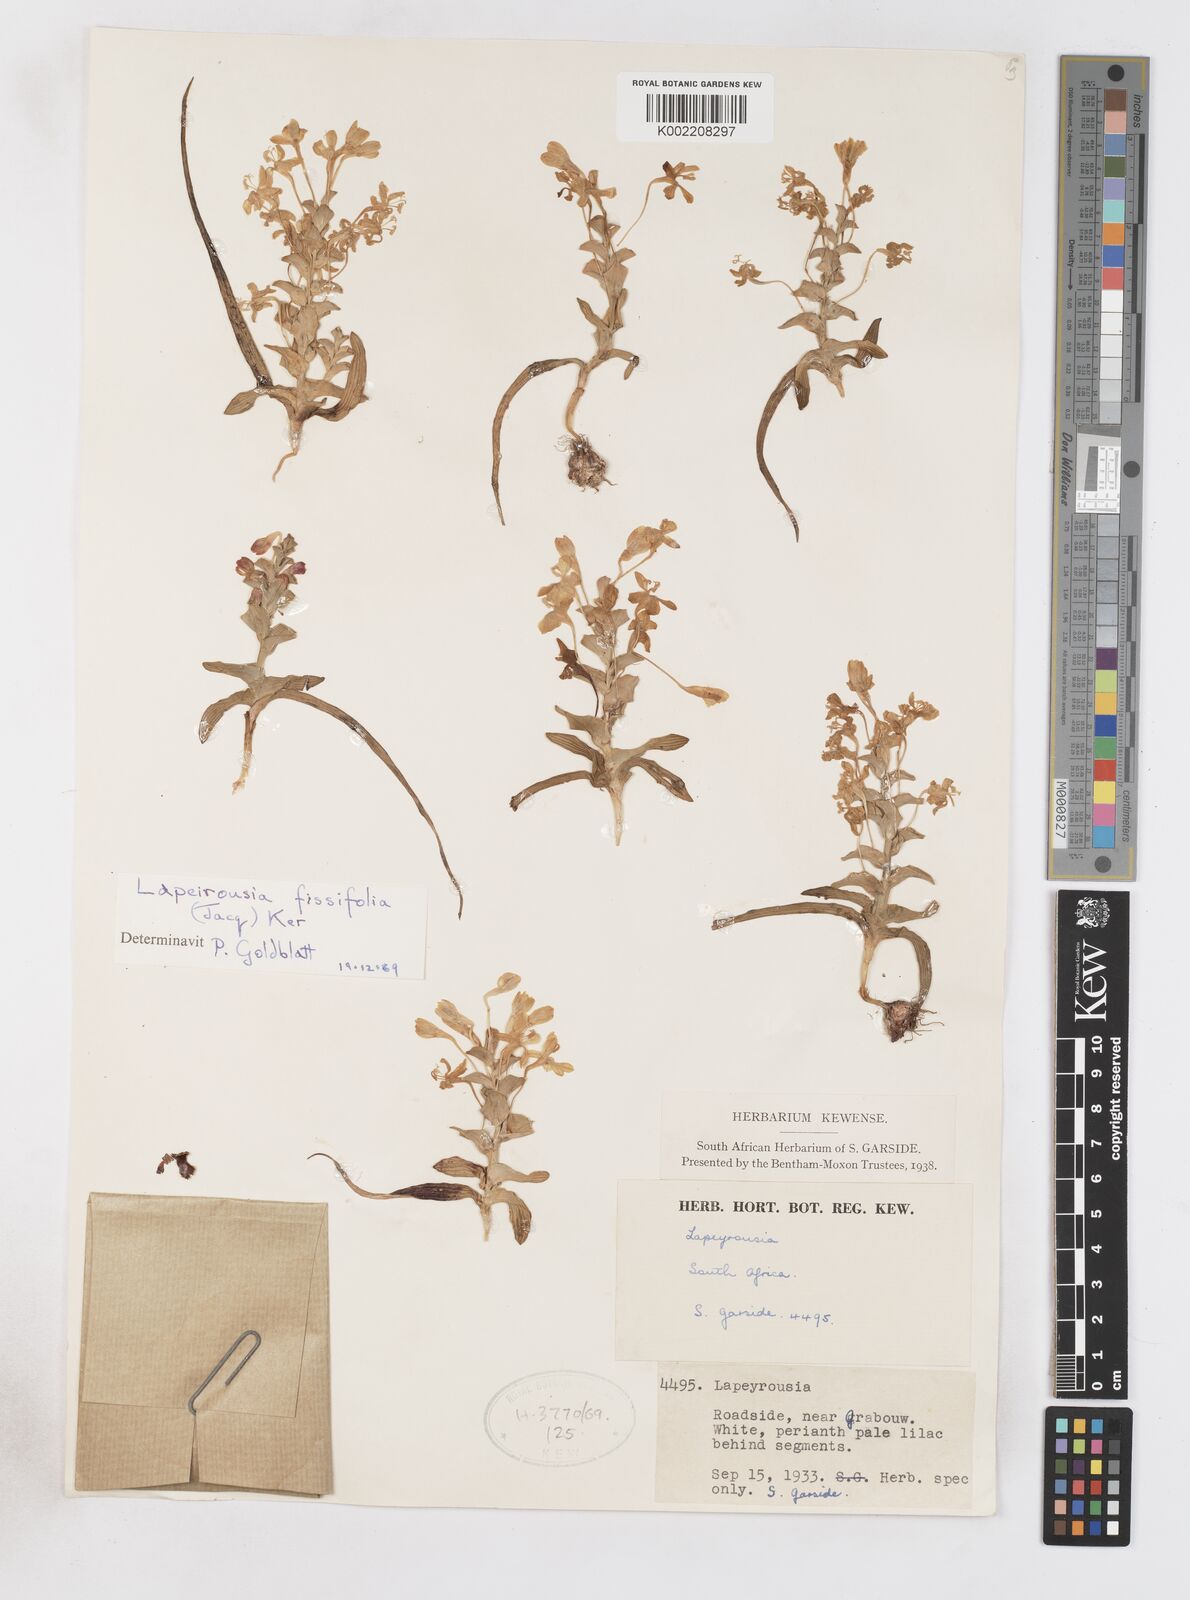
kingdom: Plantae
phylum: Tracheophyta
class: Liliopsida
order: Asparagales
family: Iridaceae
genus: Lapeirousia
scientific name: Lapeirousia pyramidalis
